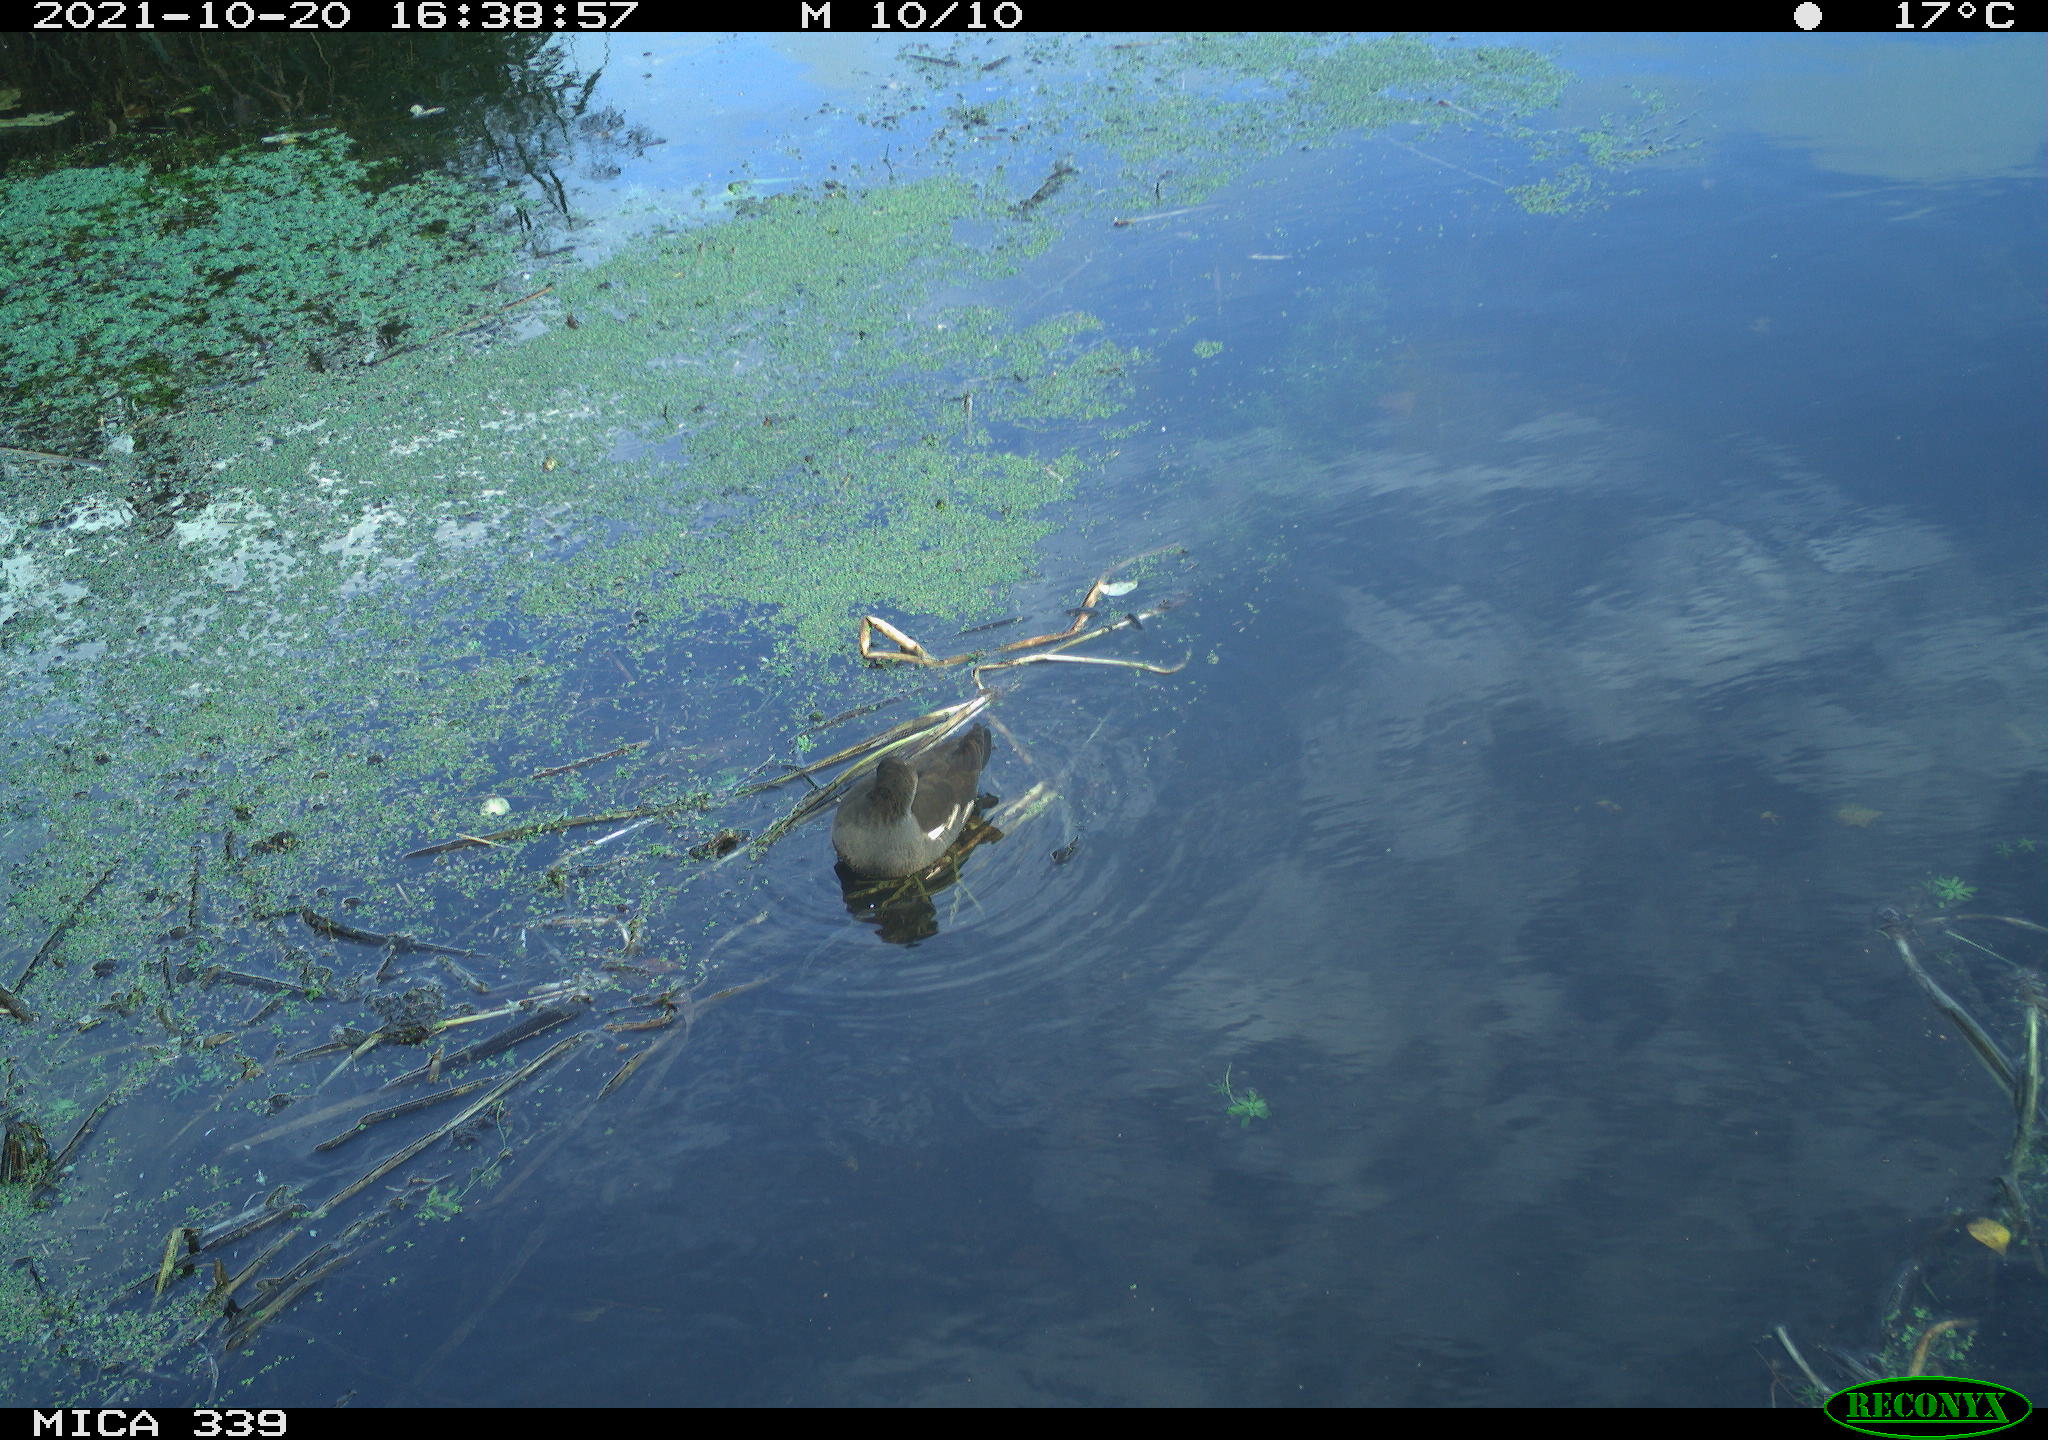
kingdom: Animalia
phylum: Chordata
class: Aves
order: Gruiformes
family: Rallidae
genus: Gallinula
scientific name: Gallinula chloropus
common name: Common moorhen
